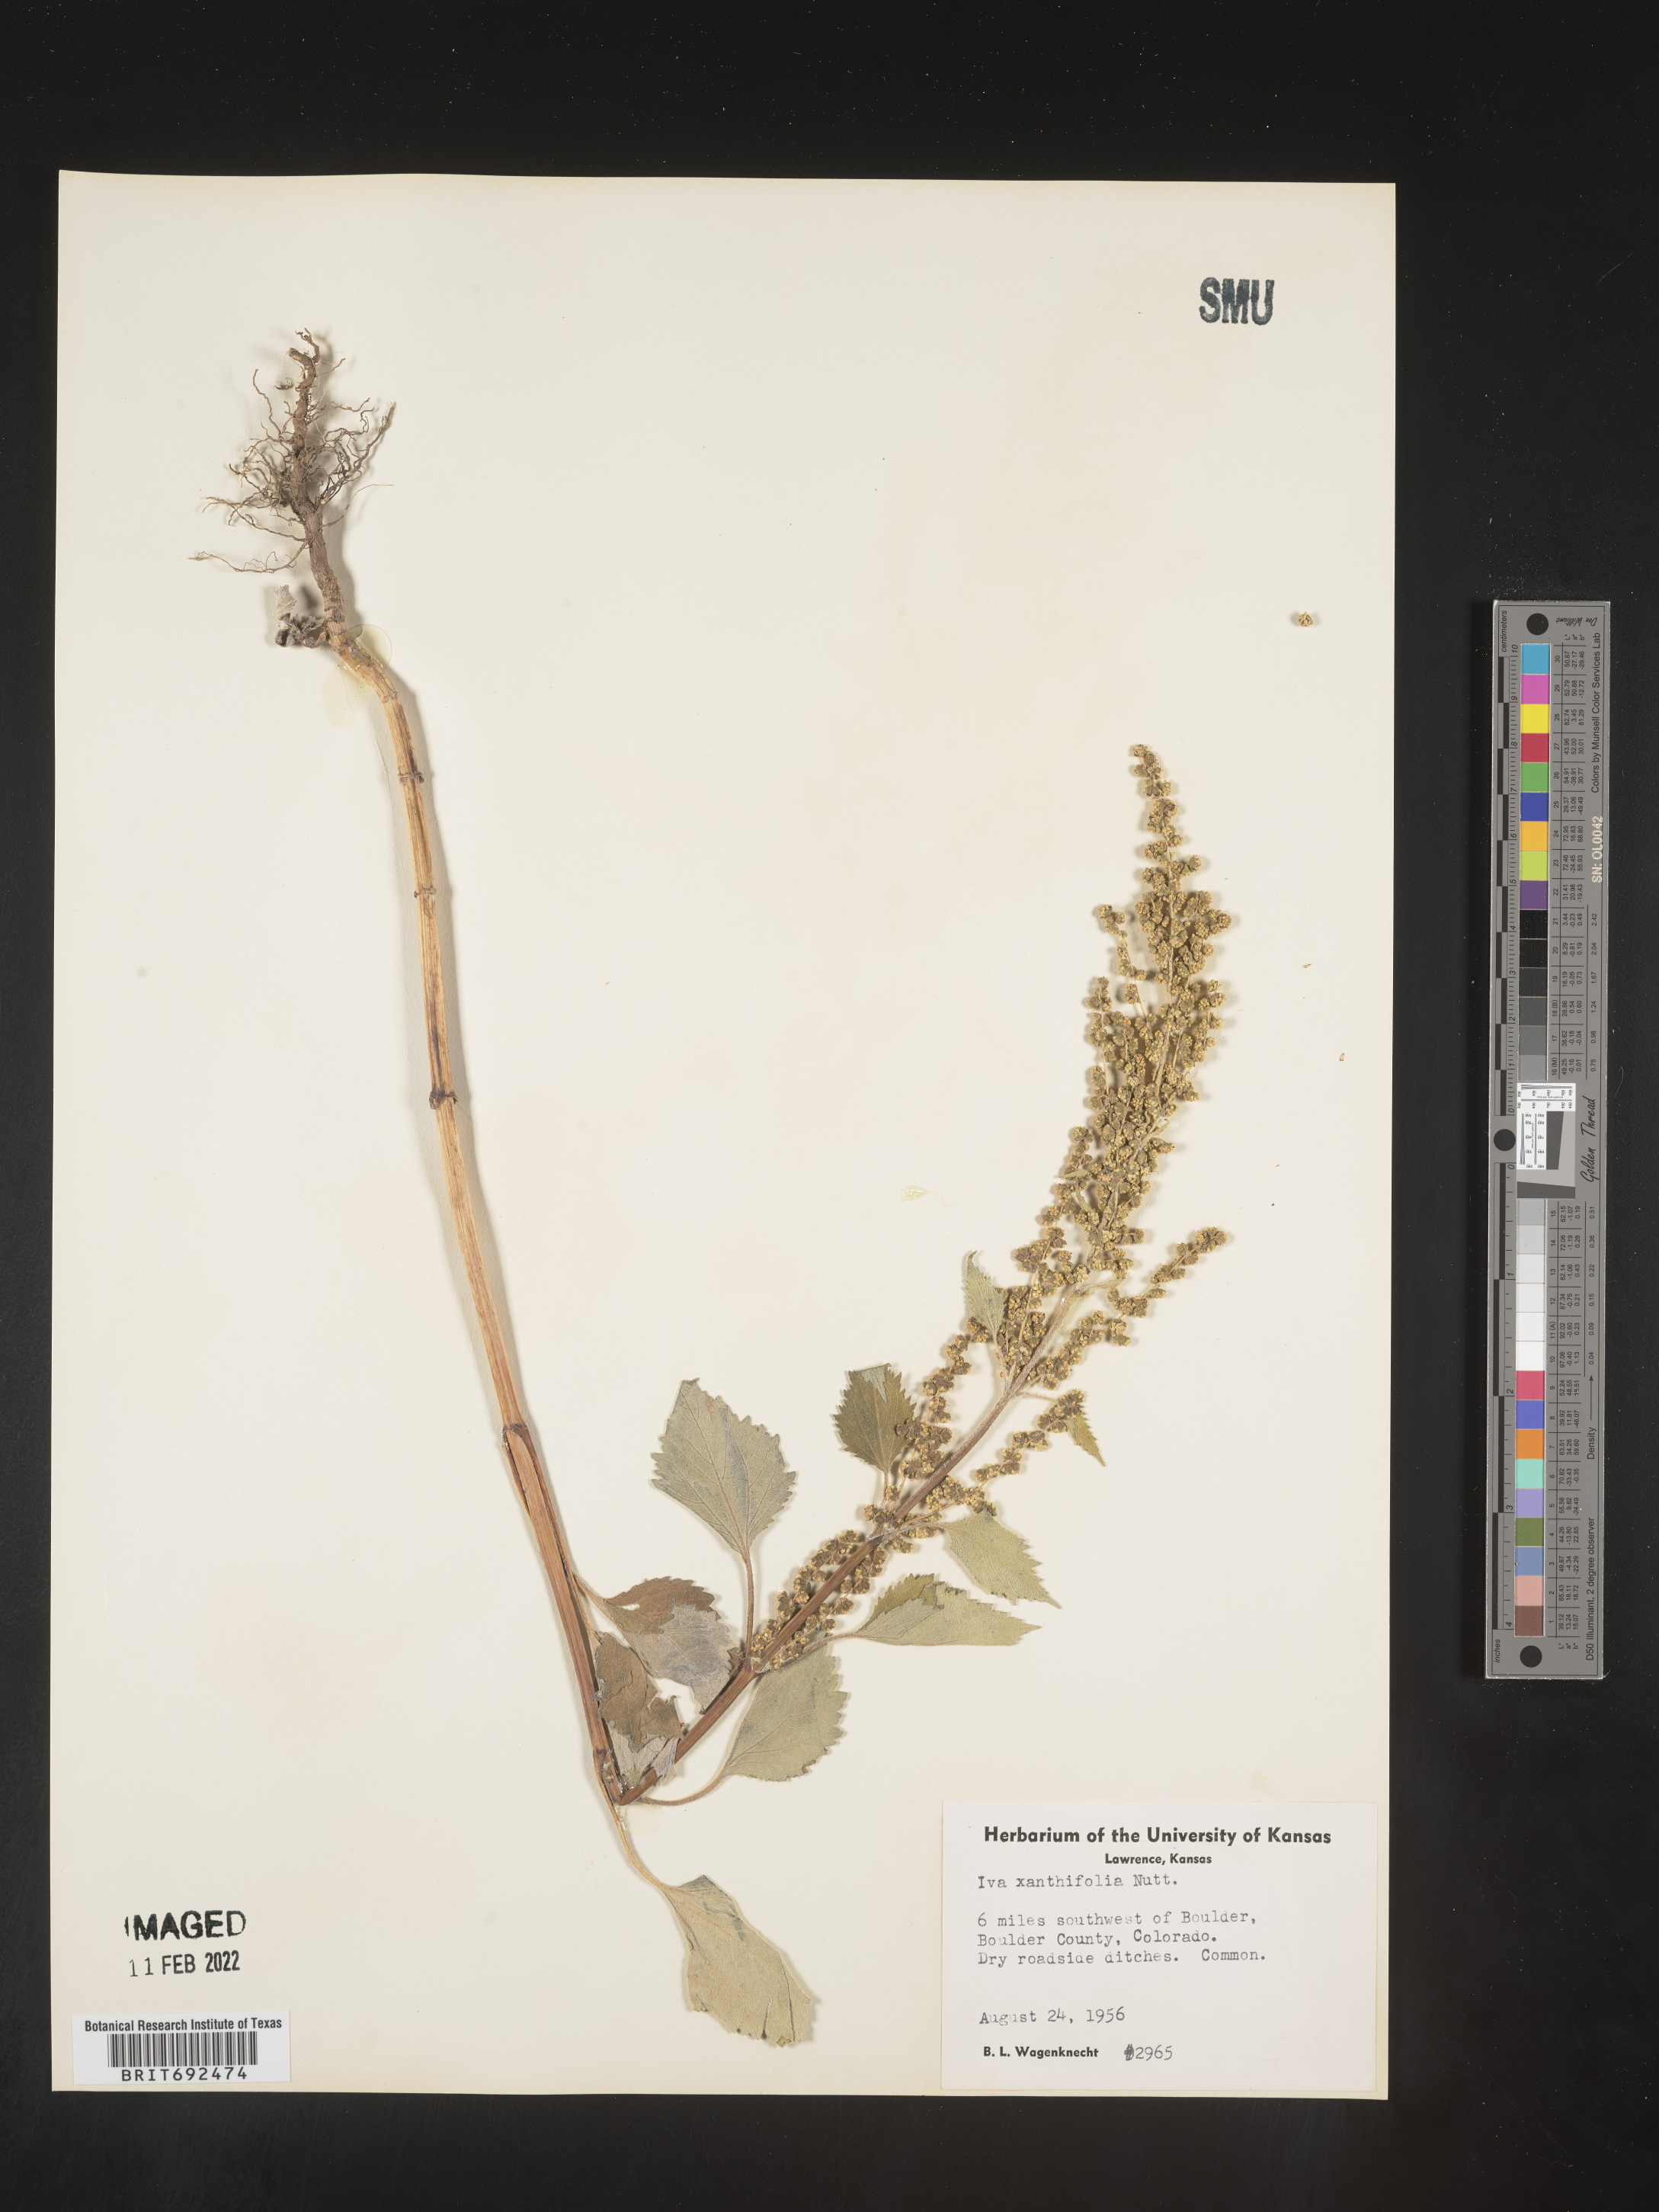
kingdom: Plantae
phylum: Tracheophyta
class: Magnoliopsida
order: Asterales
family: Asteraceae
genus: Cyclachaena
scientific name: Cyclachaena
